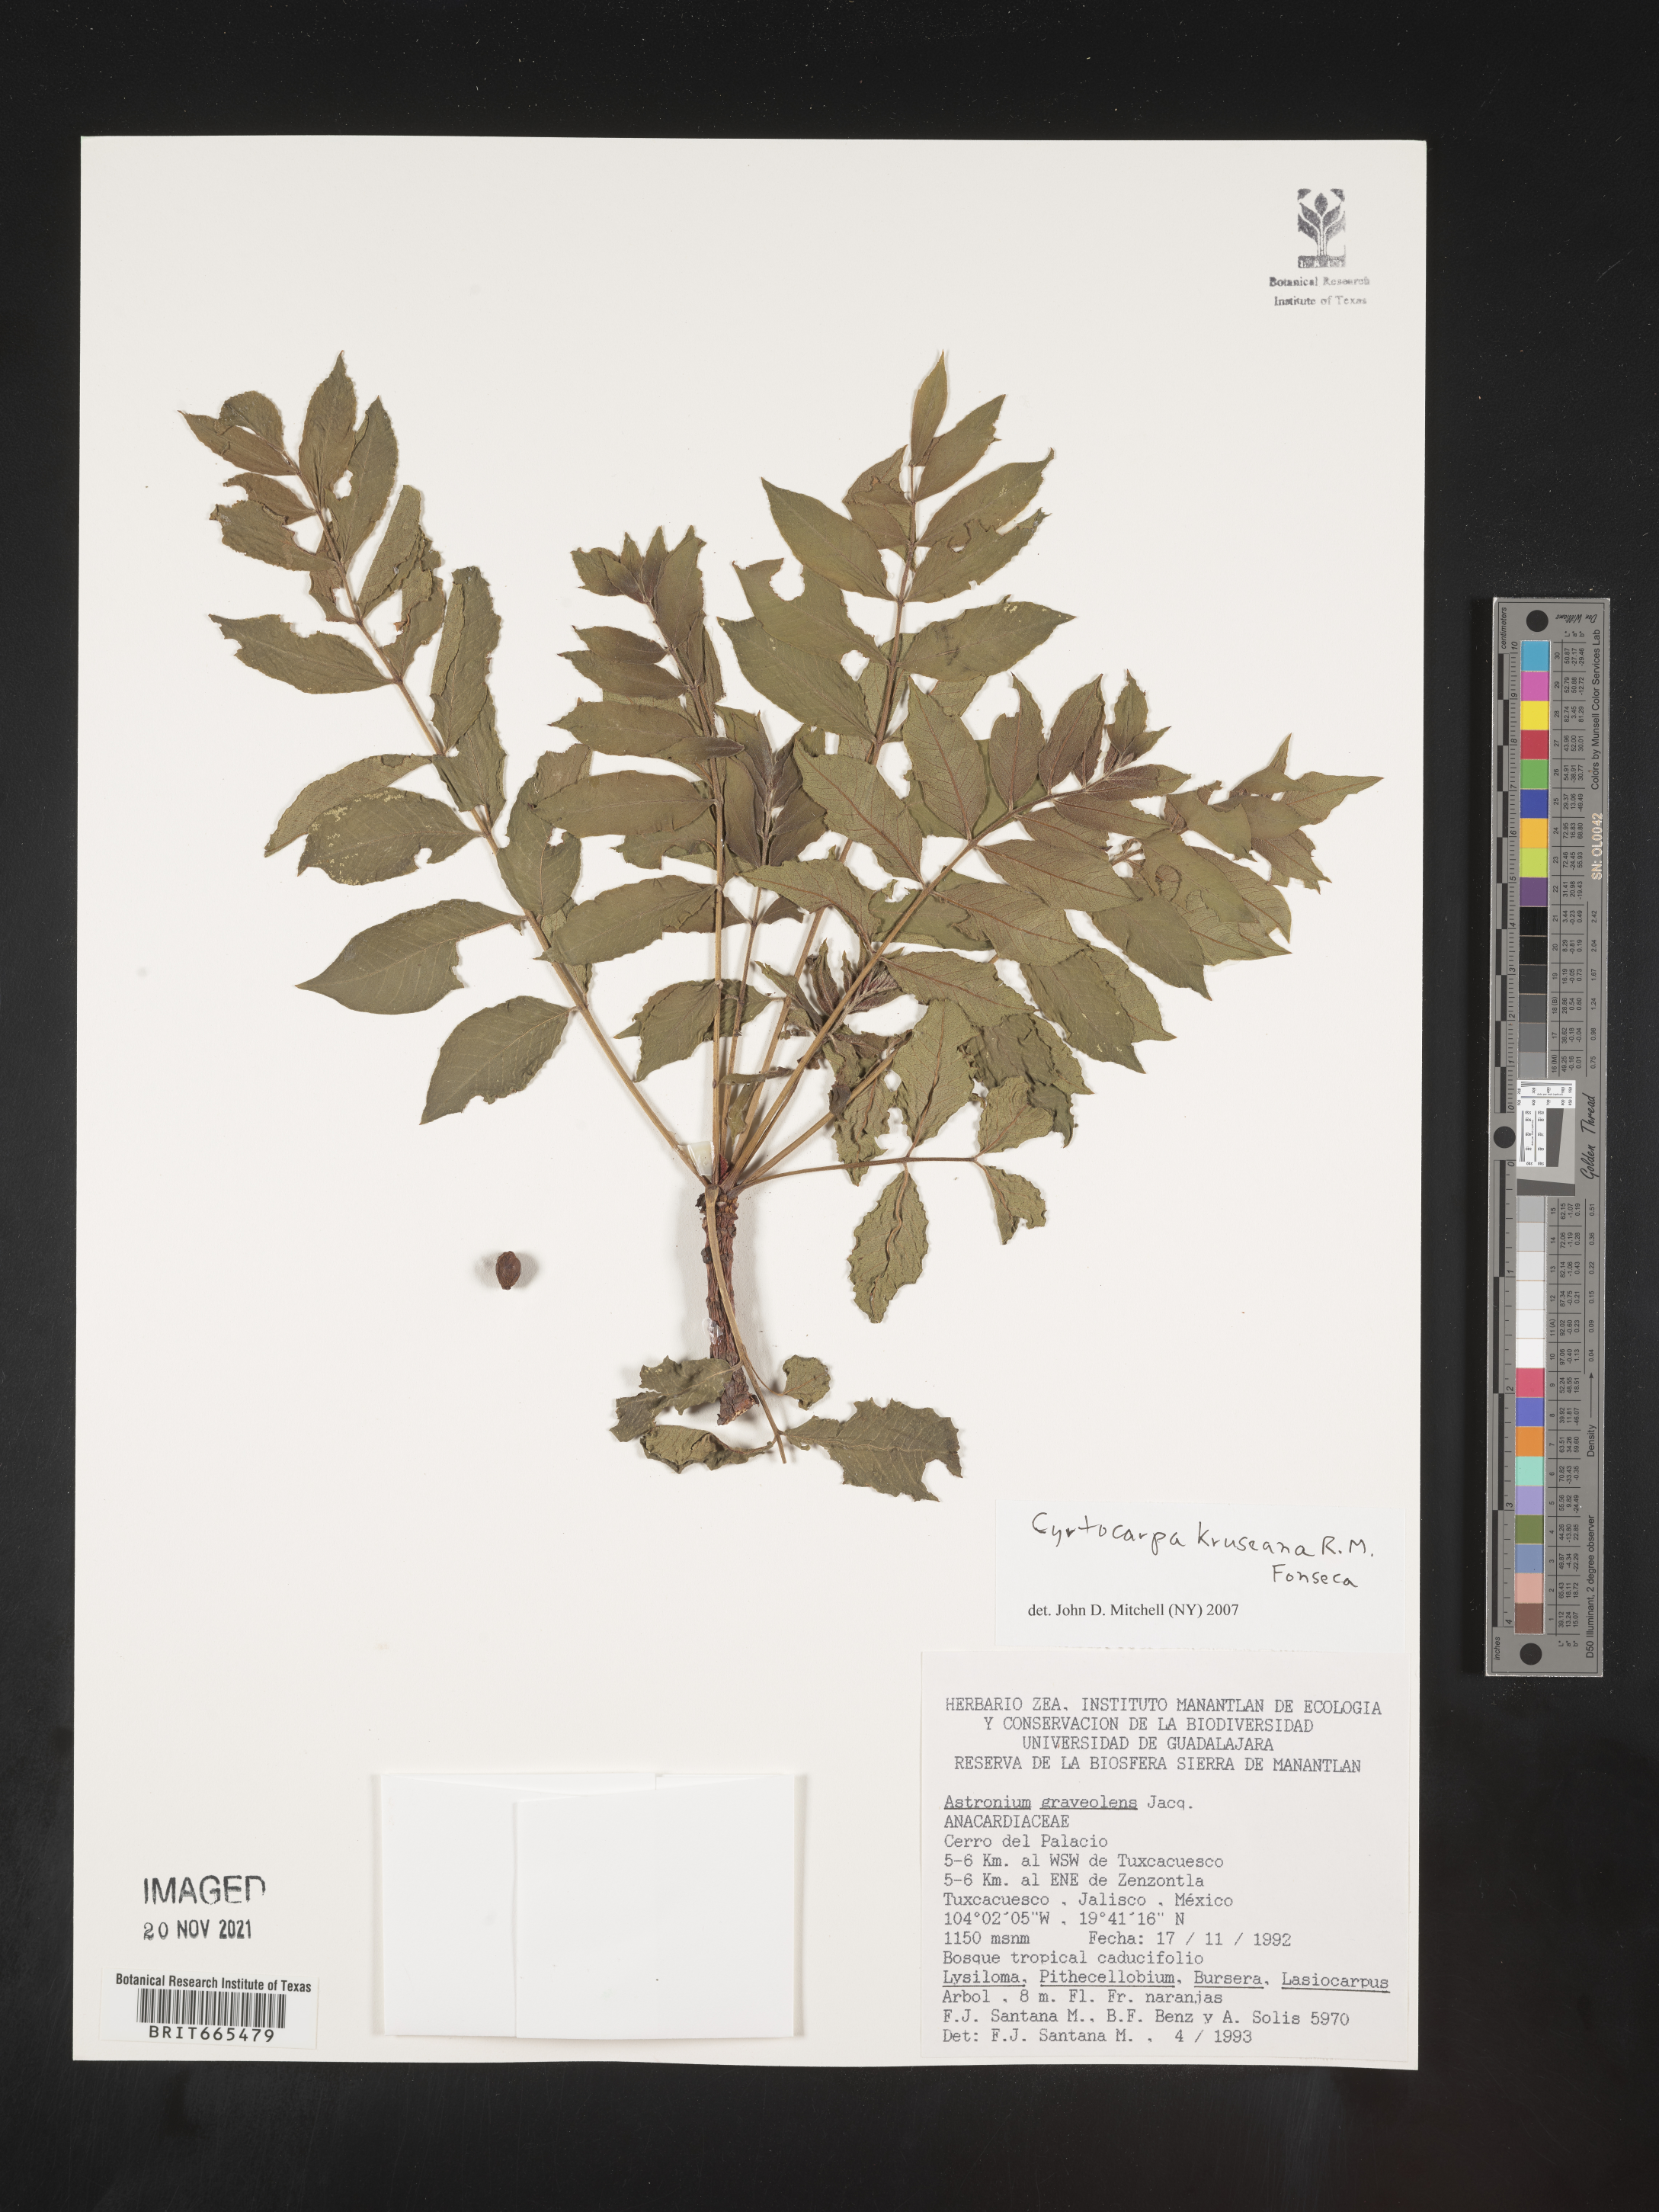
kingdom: Plantae
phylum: Tracheophyta
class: Magnoliopsida
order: Sapindales
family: Anacardiaceae
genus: Cyrtocarpa
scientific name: Cyrtocarpa
